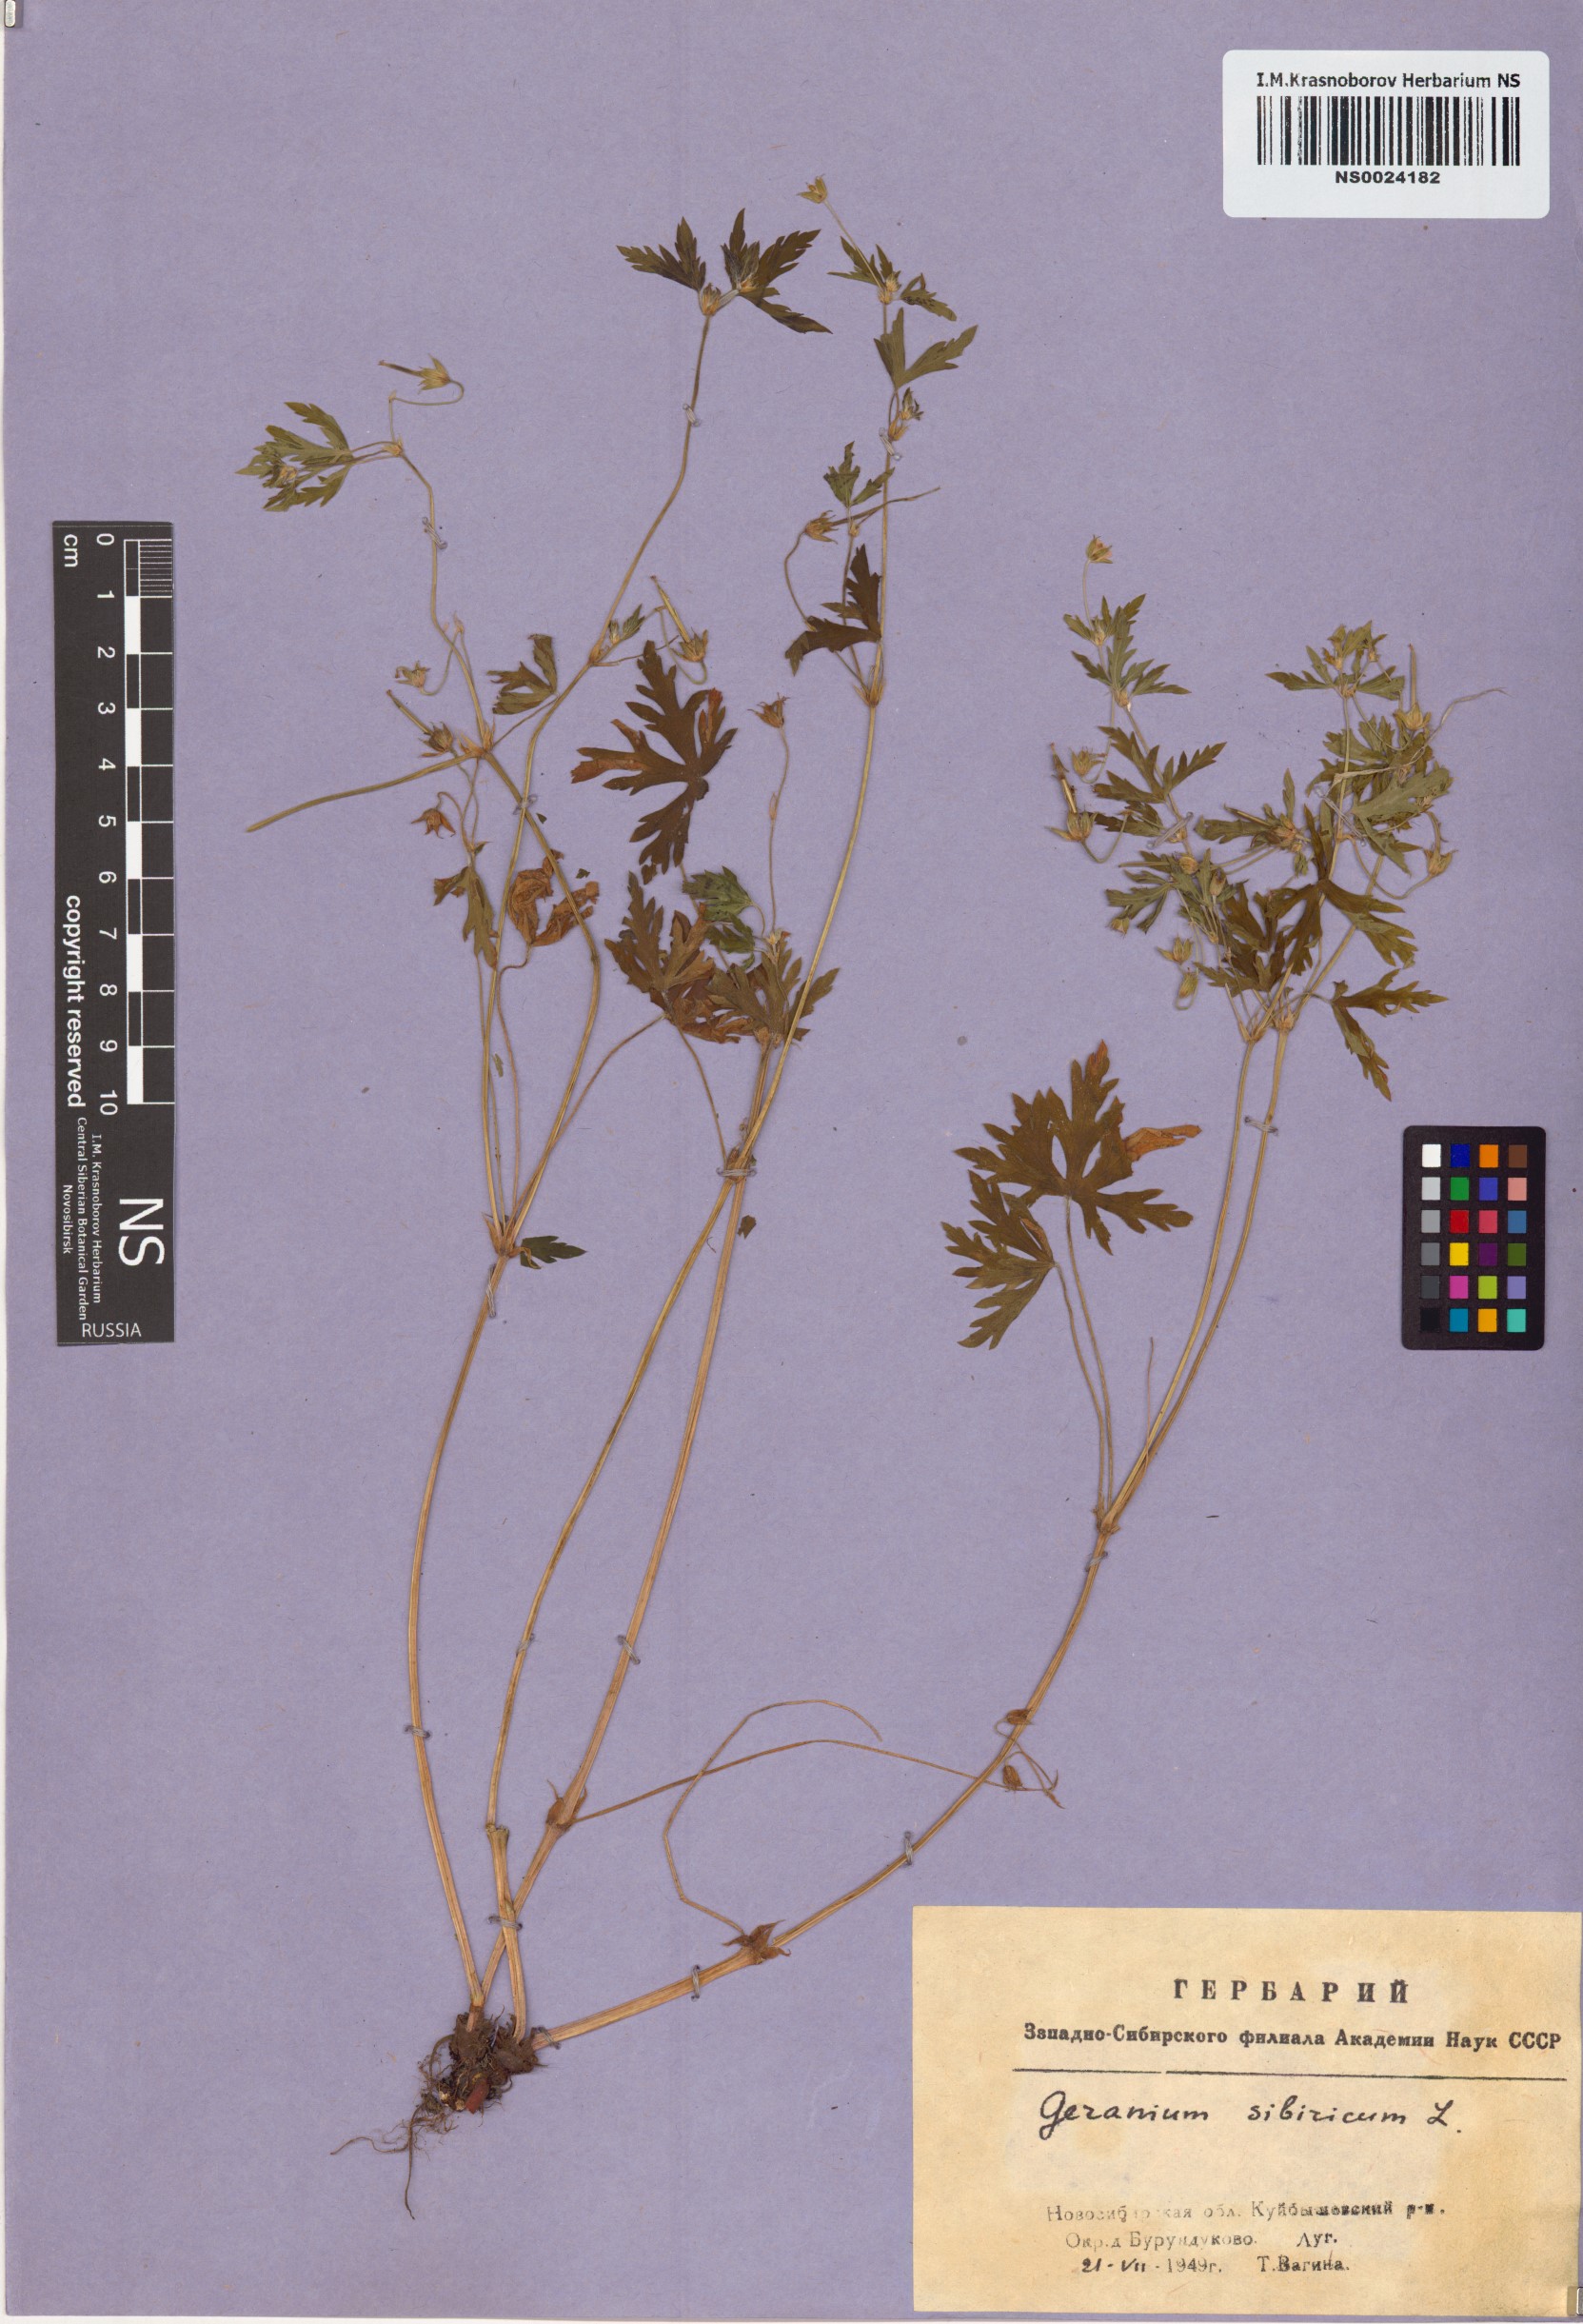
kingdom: Plantae
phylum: Tracheophyta
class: Magnoliopsida
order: Geraniales
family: Geraniaceae
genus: Geranium
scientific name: Geranium sibiricum
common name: Siberian crane's-bill
